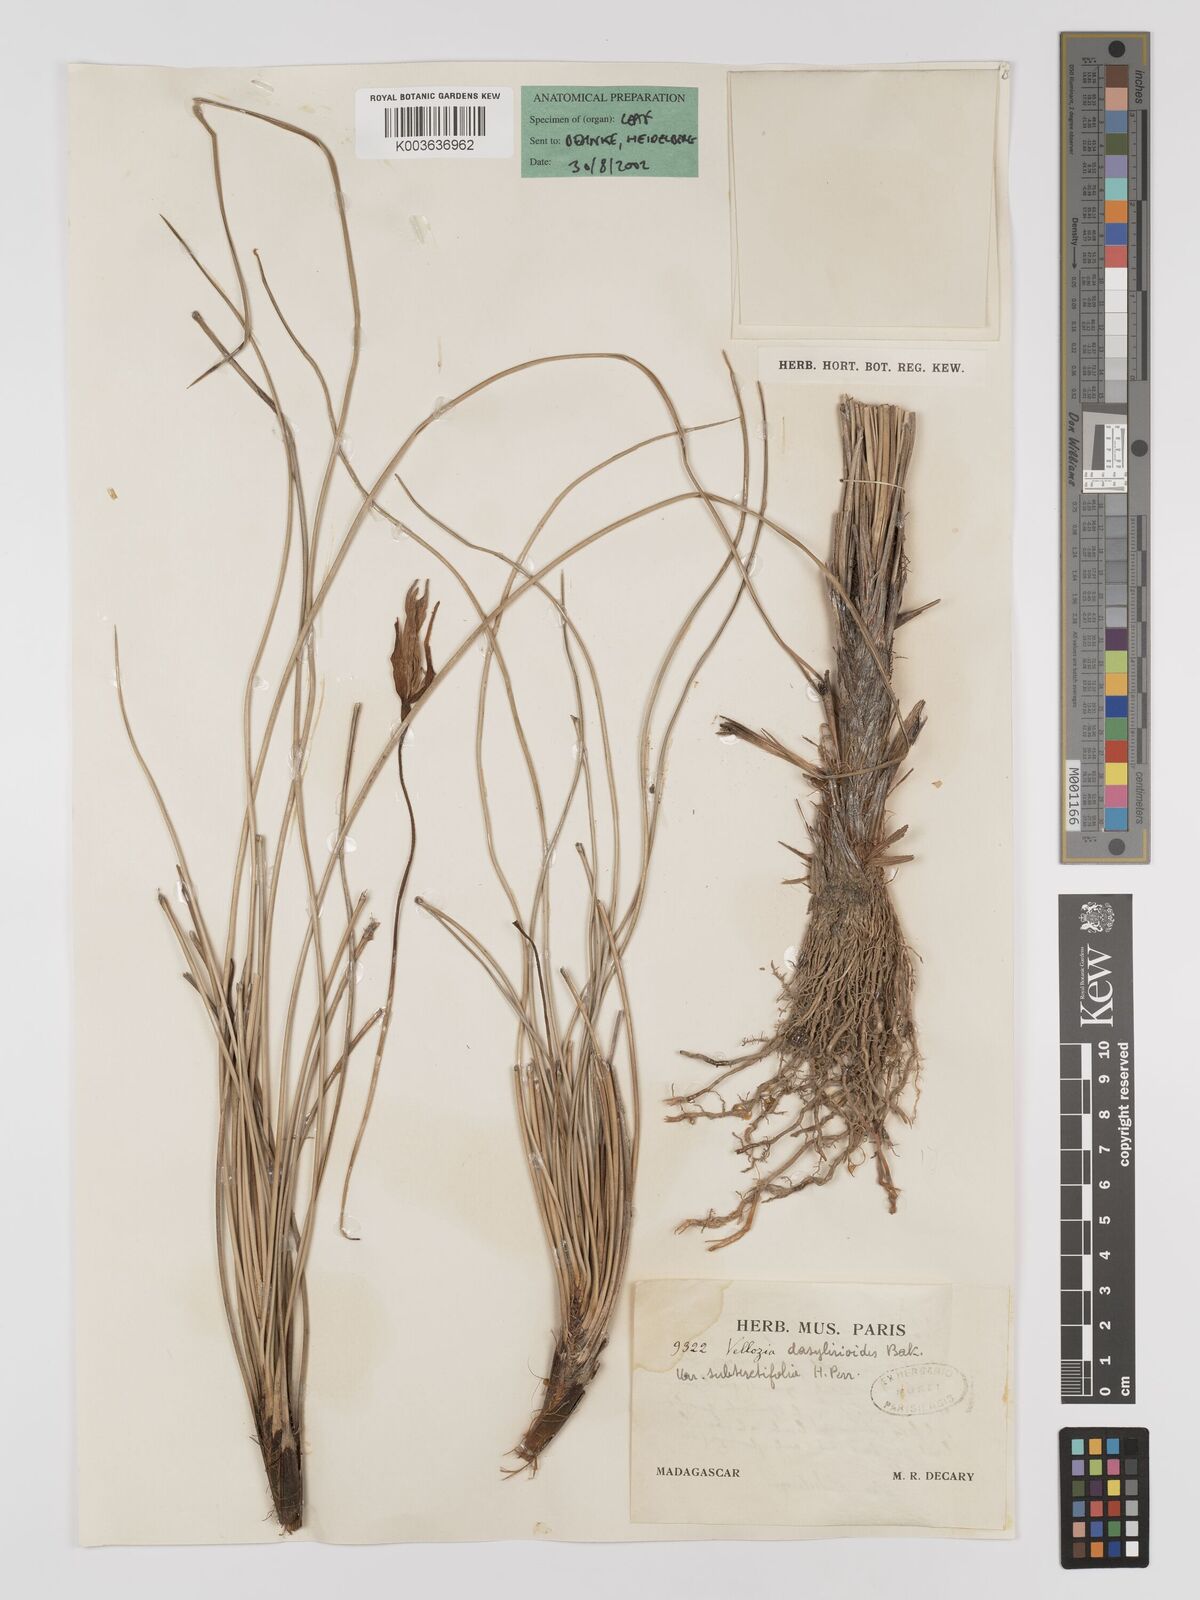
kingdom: Plantae
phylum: Tracheophyta
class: Liliopsida
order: Pandanales
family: Velloziaceae
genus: Xerophyta
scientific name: Xerophyta
